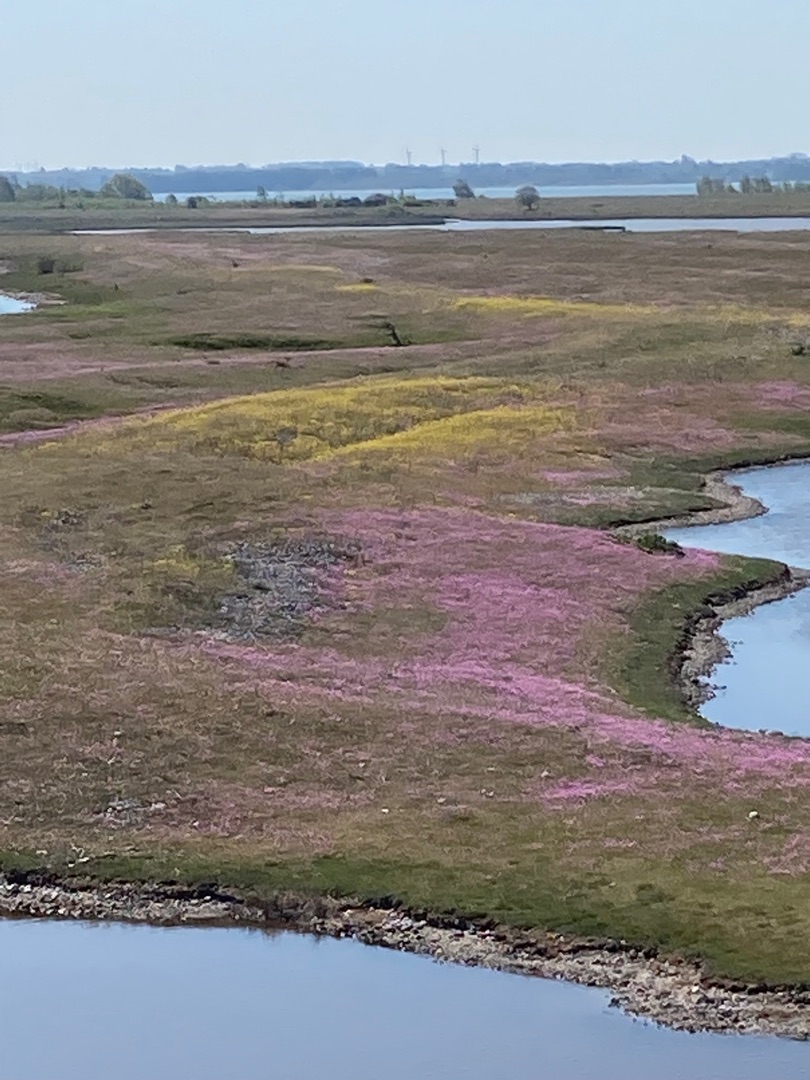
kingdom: Plantae
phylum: Tracheophyta
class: Magnoliopsida
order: Caryophyllales
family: Plumbaginaceae
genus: Armeria
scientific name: Armeria maritima
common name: Engelskgræs
